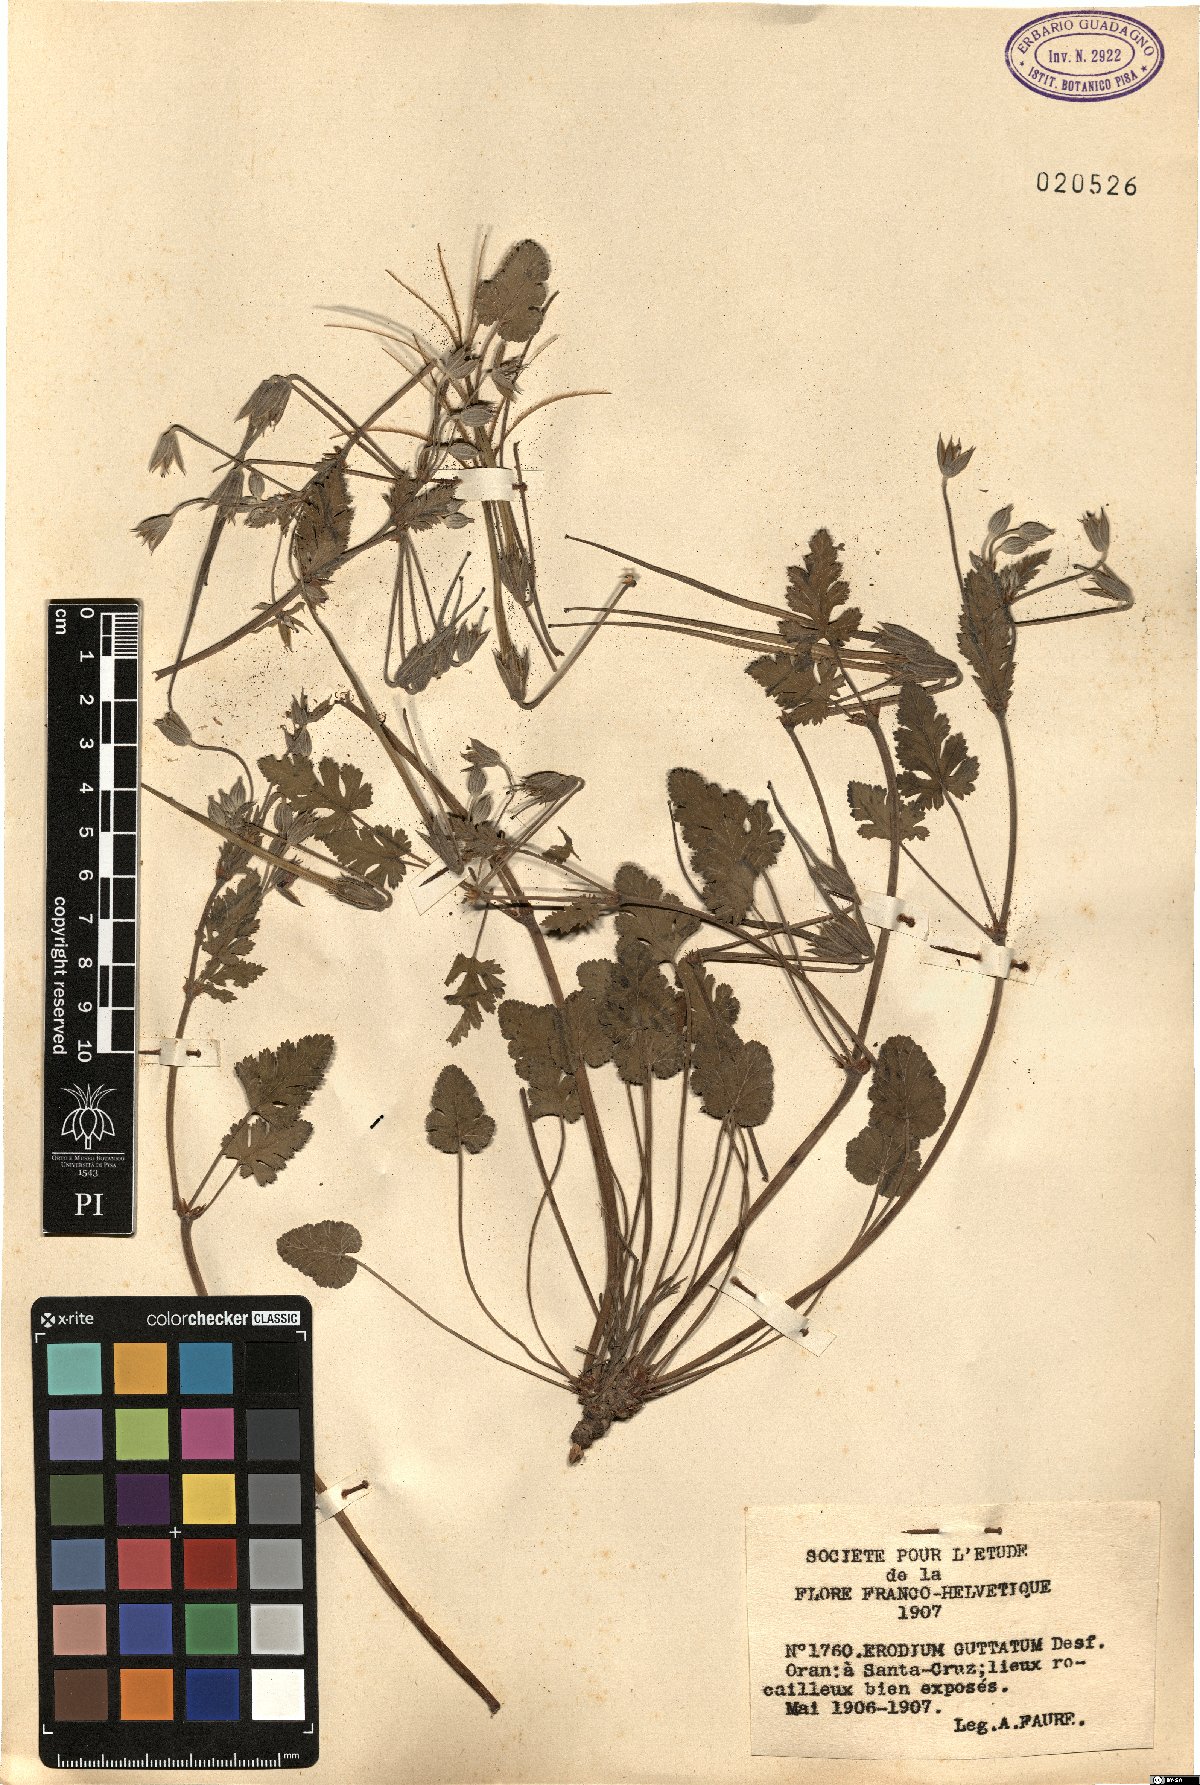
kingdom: Plantae
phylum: Tracheophyta
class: Magnoliopsida
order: Geraniales
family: Geraniaceae
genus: Erodium
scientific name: Erodium guttatum
